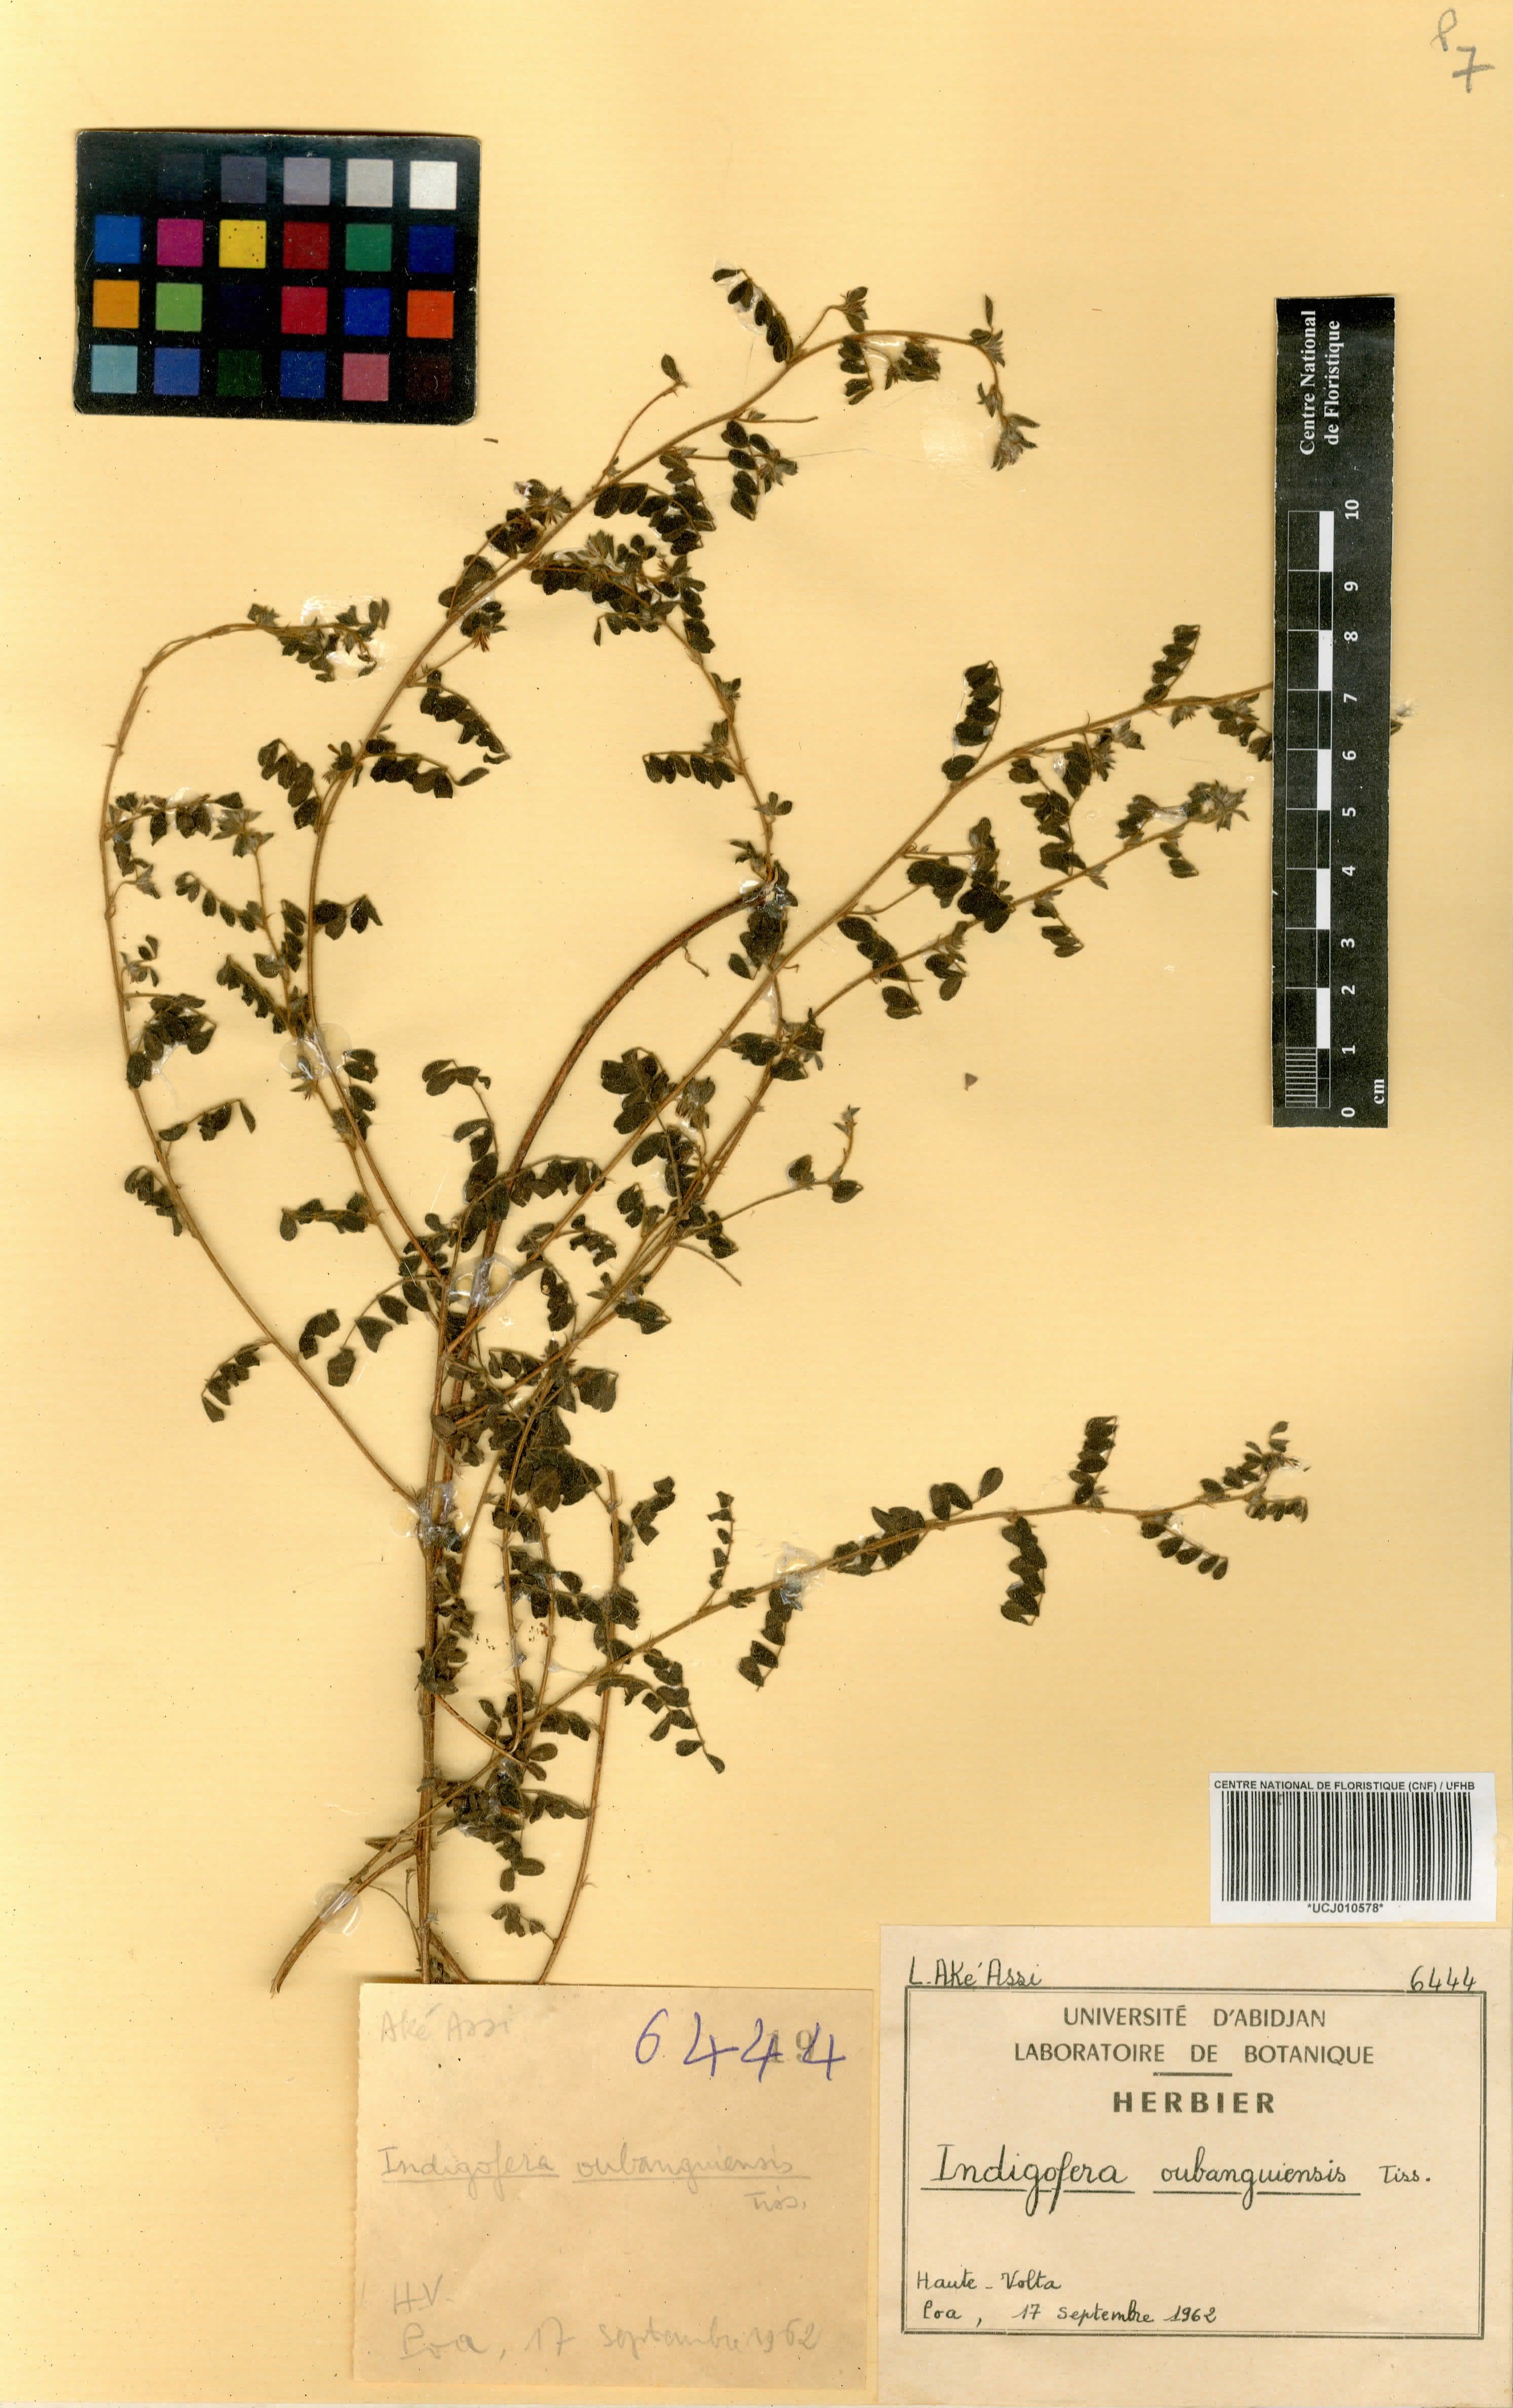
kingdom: Plantae
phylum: Tracheophyta
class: Magnoliopsida
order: Fabales
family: Fabaceae
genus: Indigofera
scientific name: Indigofera oubanguiensis
